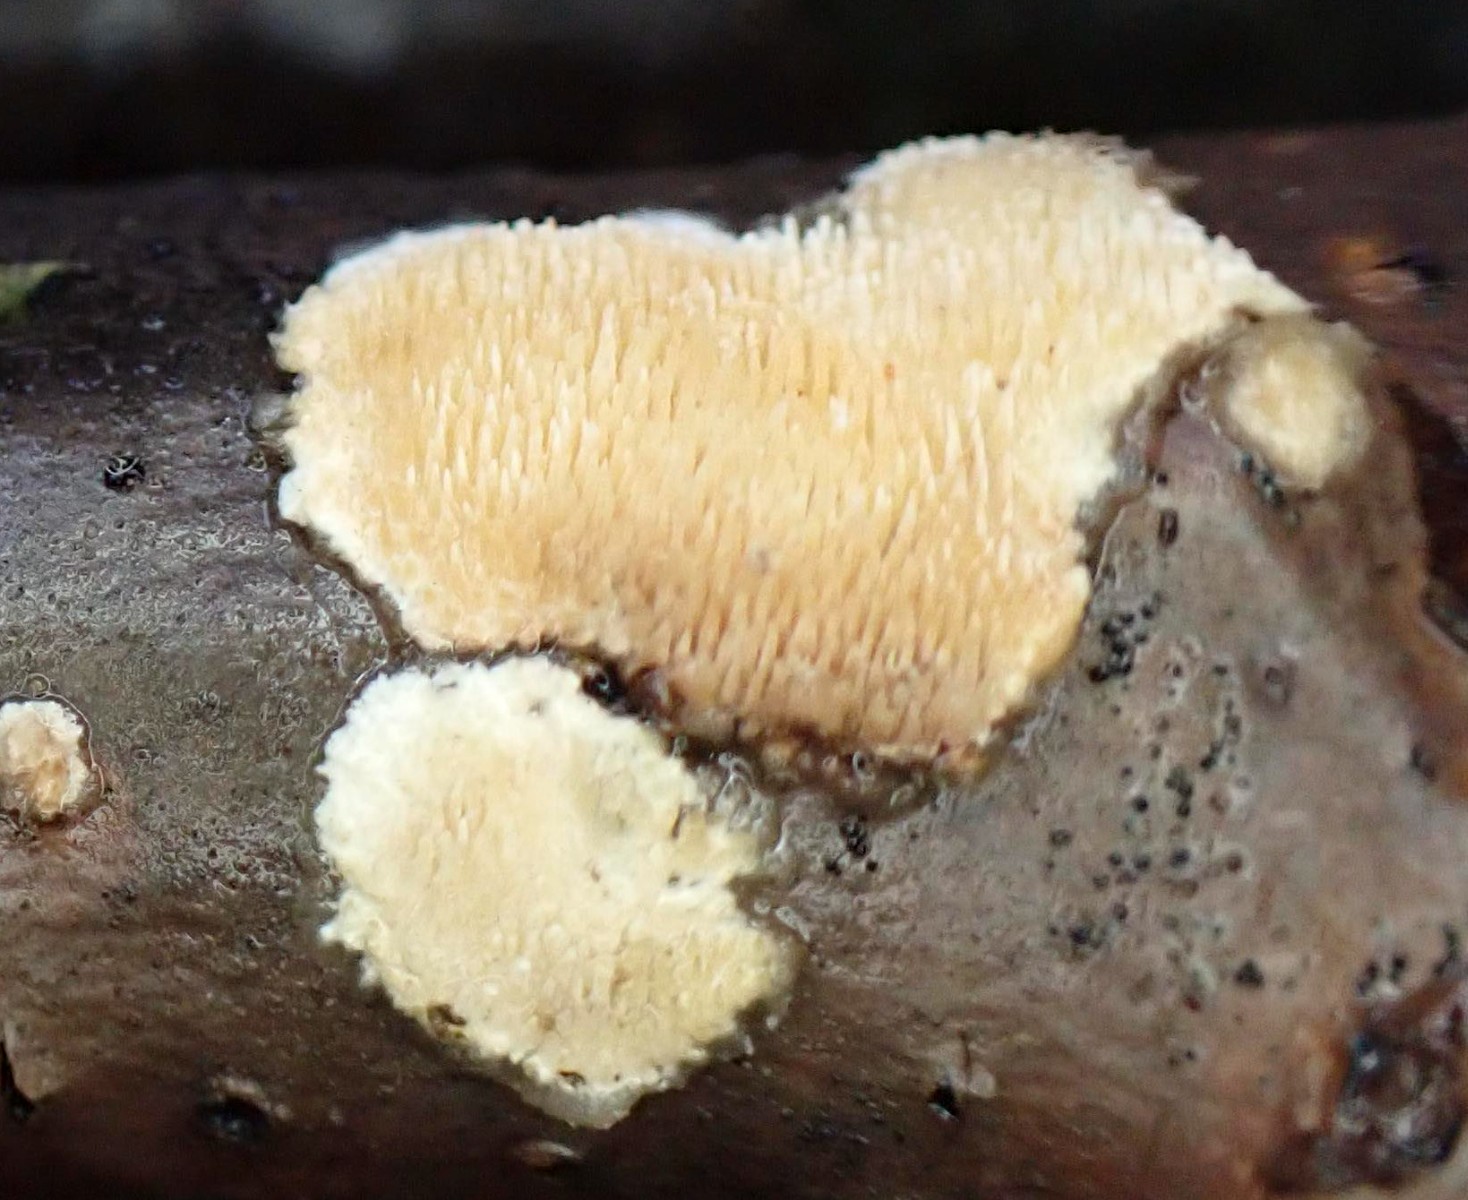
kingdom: Fungi
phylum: Basidiomycota
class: Agaricomycetes
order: Polyporales
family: Steccherinaceae
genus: Steccherinum
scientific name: Steccherinum
